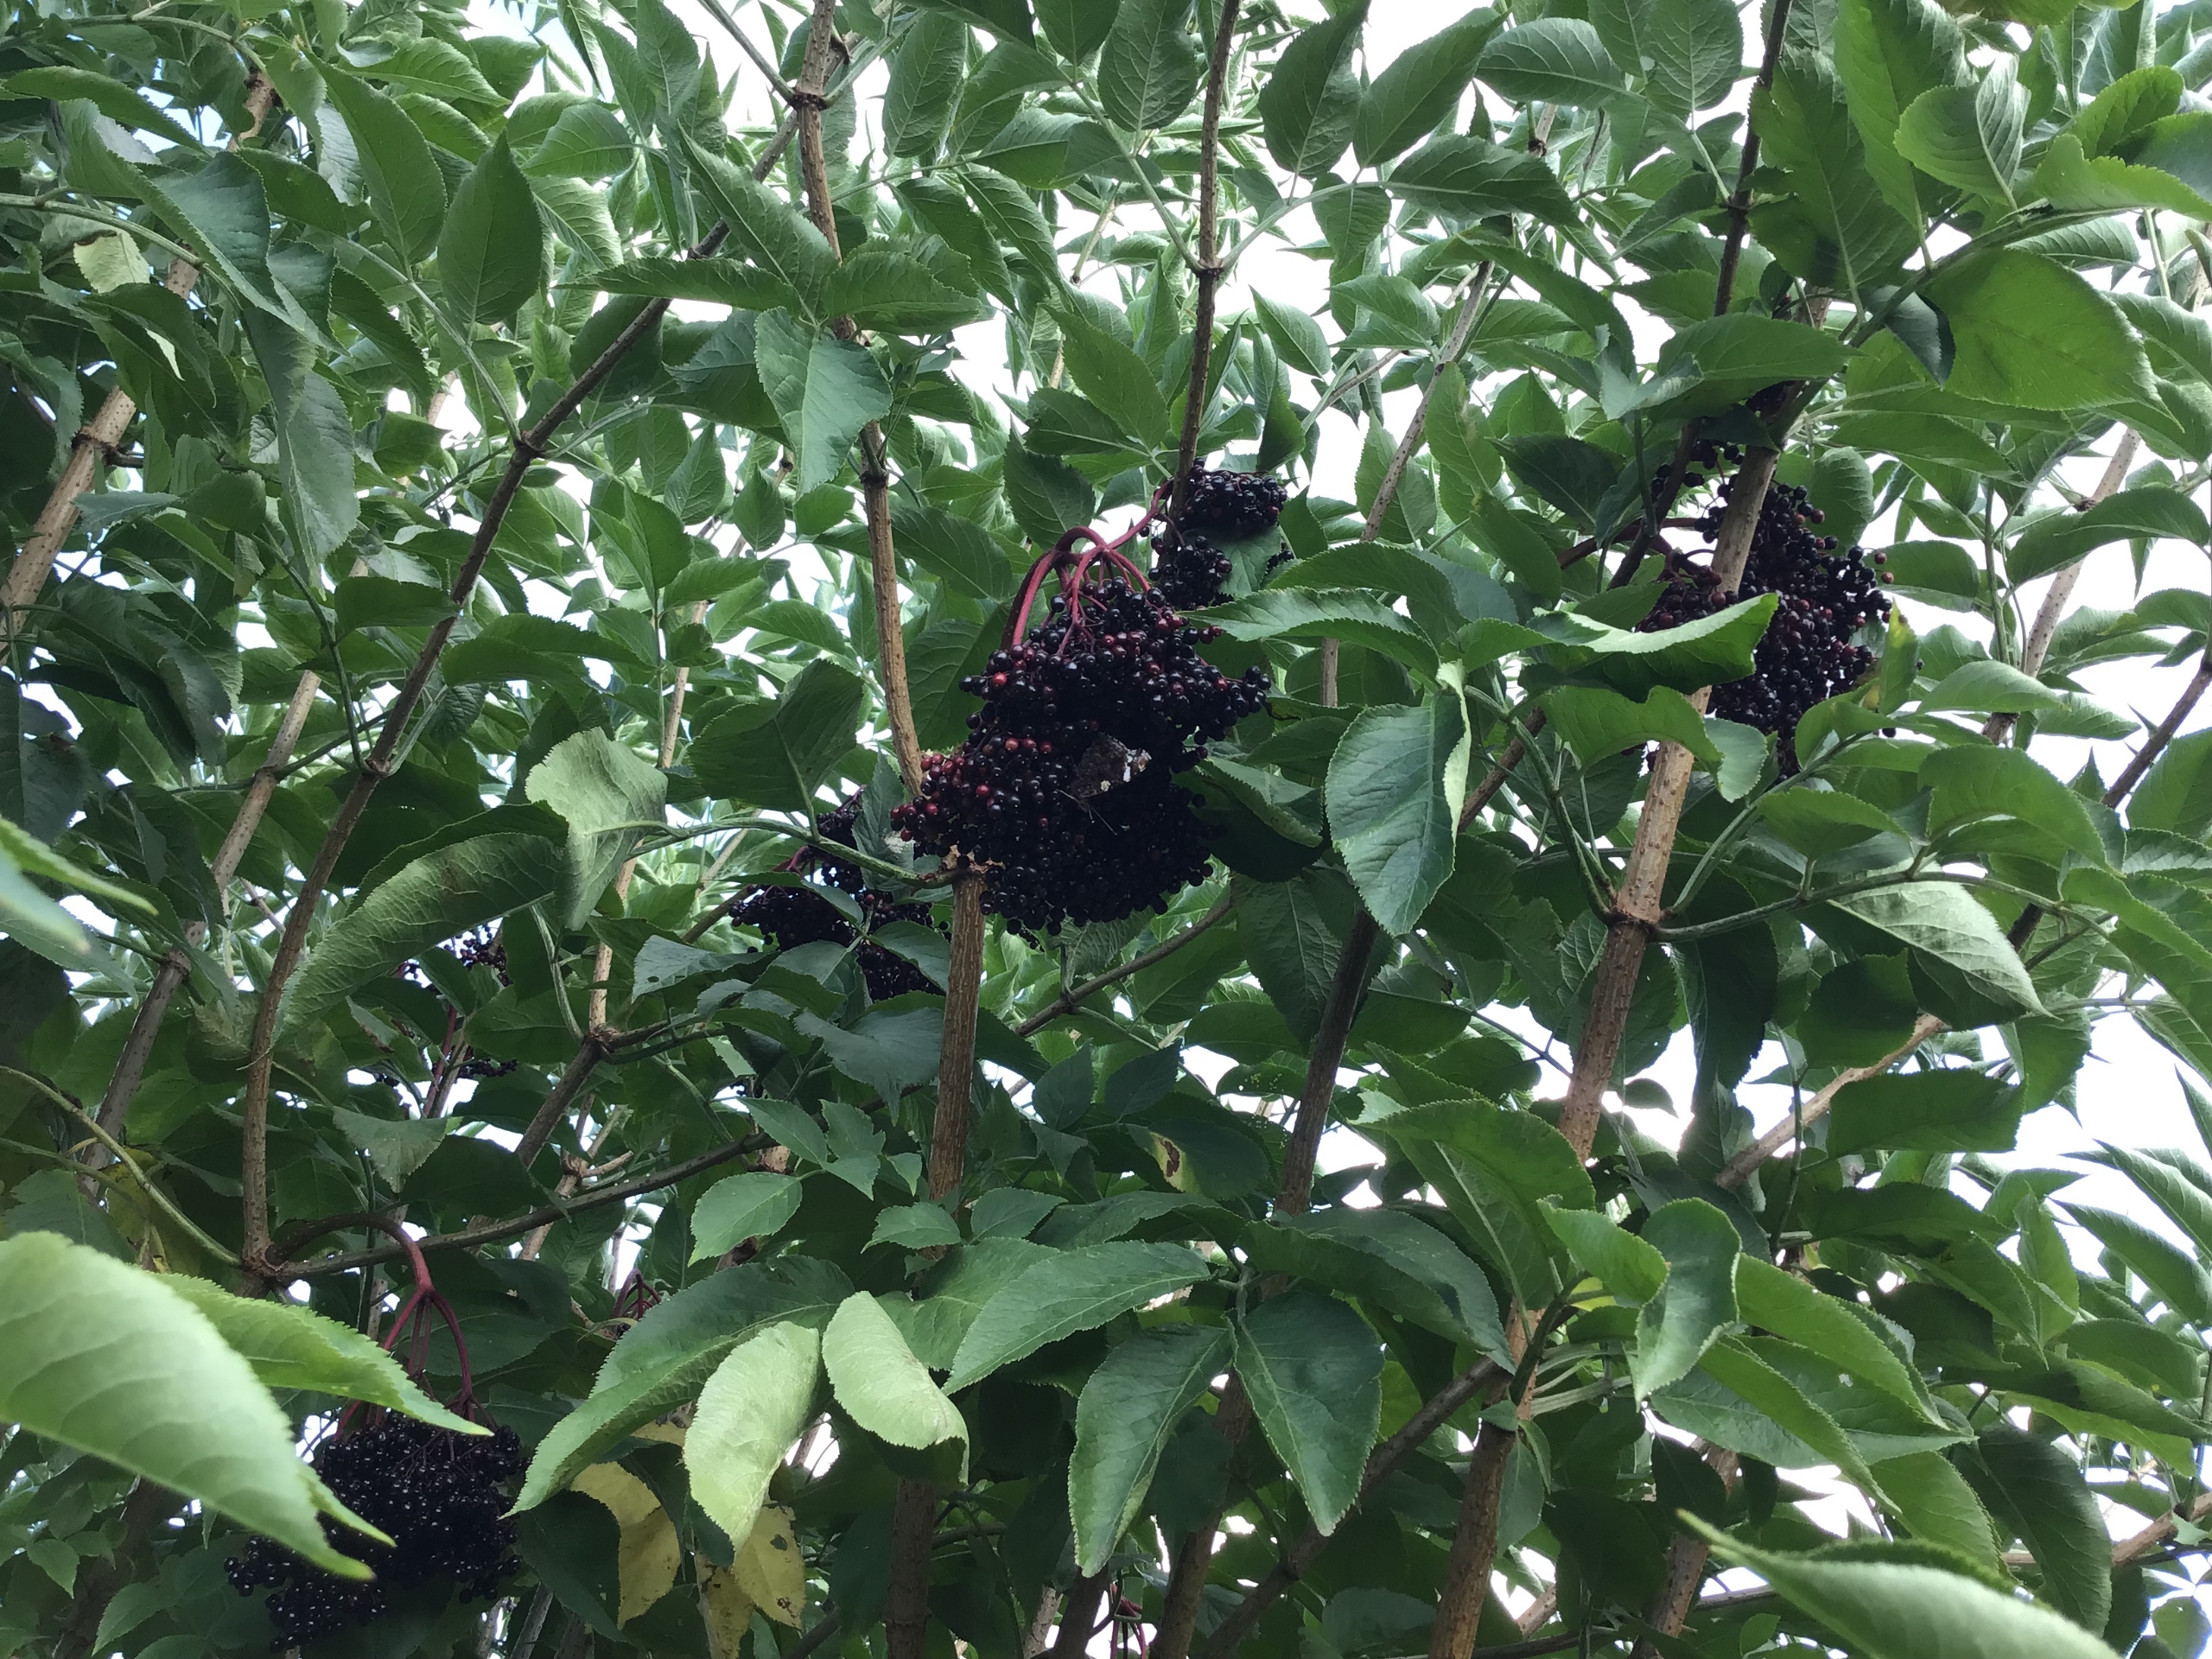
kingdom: Animalia
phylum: Arthropoda
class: Insecta
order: Lepidoptera
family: Nymphalidae
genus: Vanessa
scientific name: Vanessa atalanta
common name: Admiral
